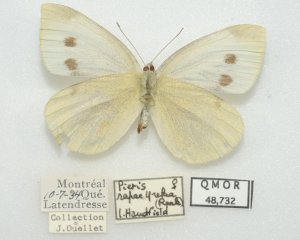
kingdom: Animalia
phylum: Arthropoda
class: Insecta
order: Lepidoptera
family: Pieridae
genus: Pieris
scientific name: Pieris rapae
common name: Cabbage White
